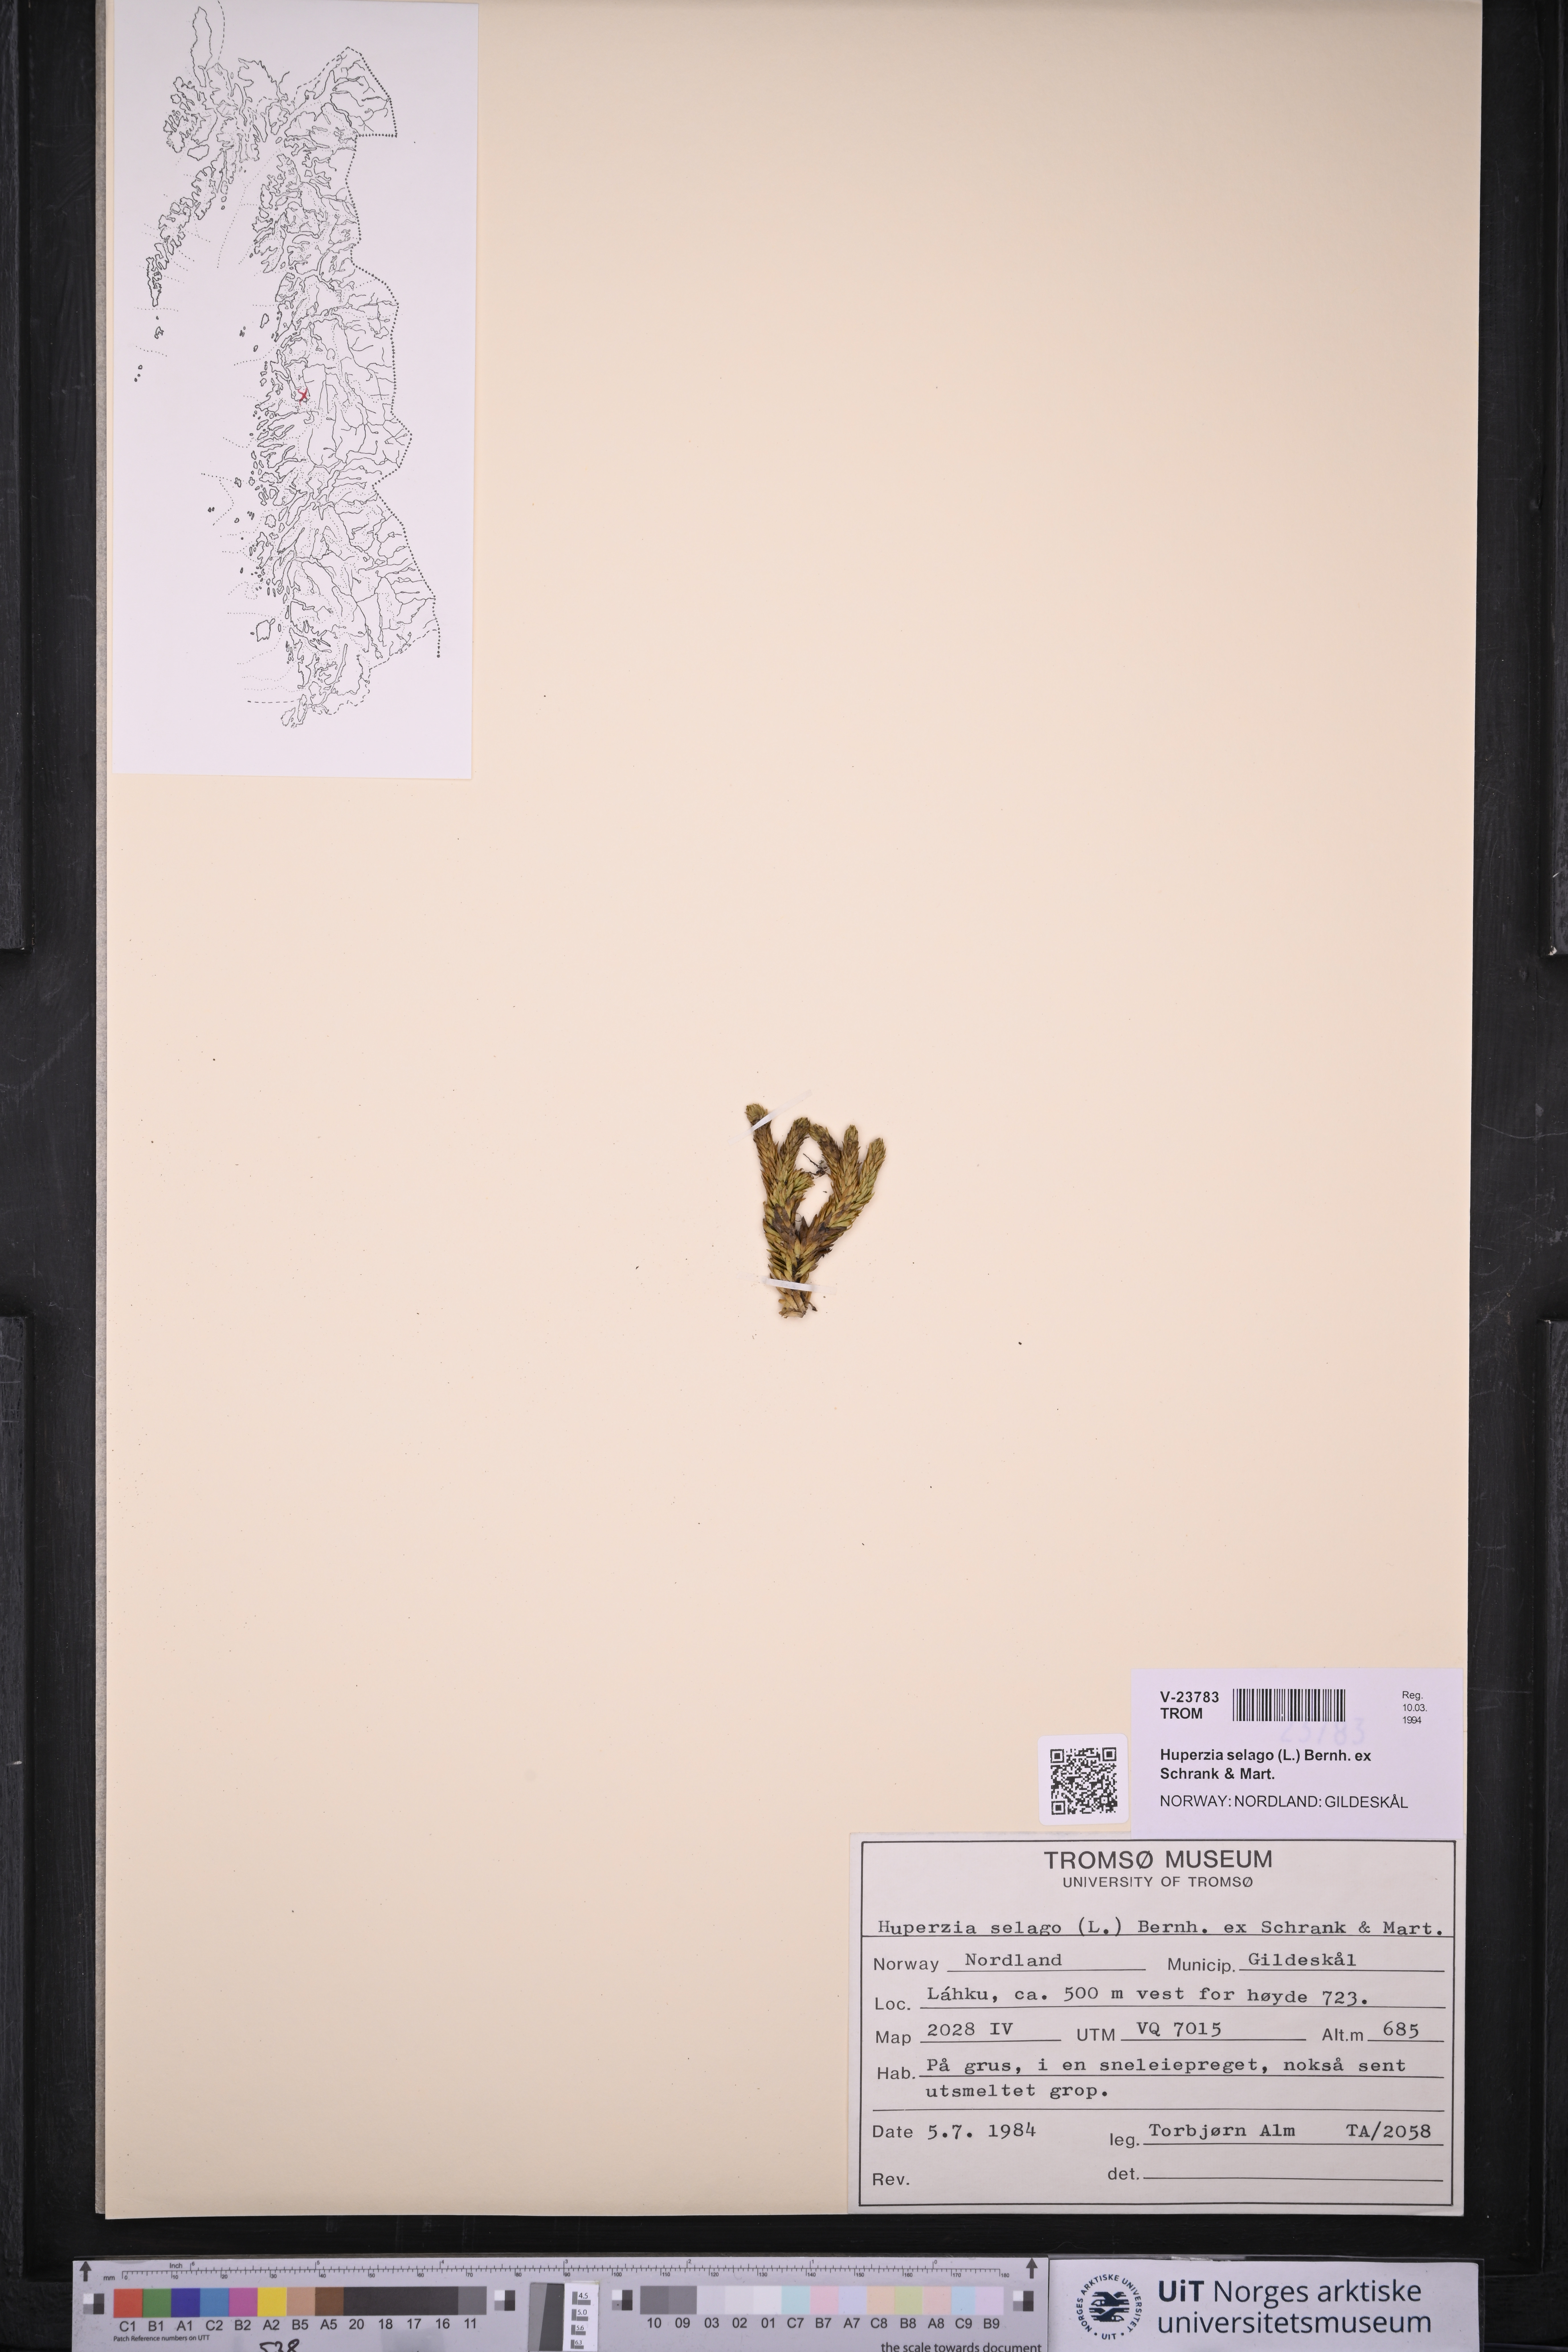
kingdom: Plantae
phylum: Tracheophyta
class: Lycopodiopsida
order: Lycopodiales
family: Lycopodiaceae
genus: Huperzia
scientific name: Huperzia selago
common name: Northern firmoss
